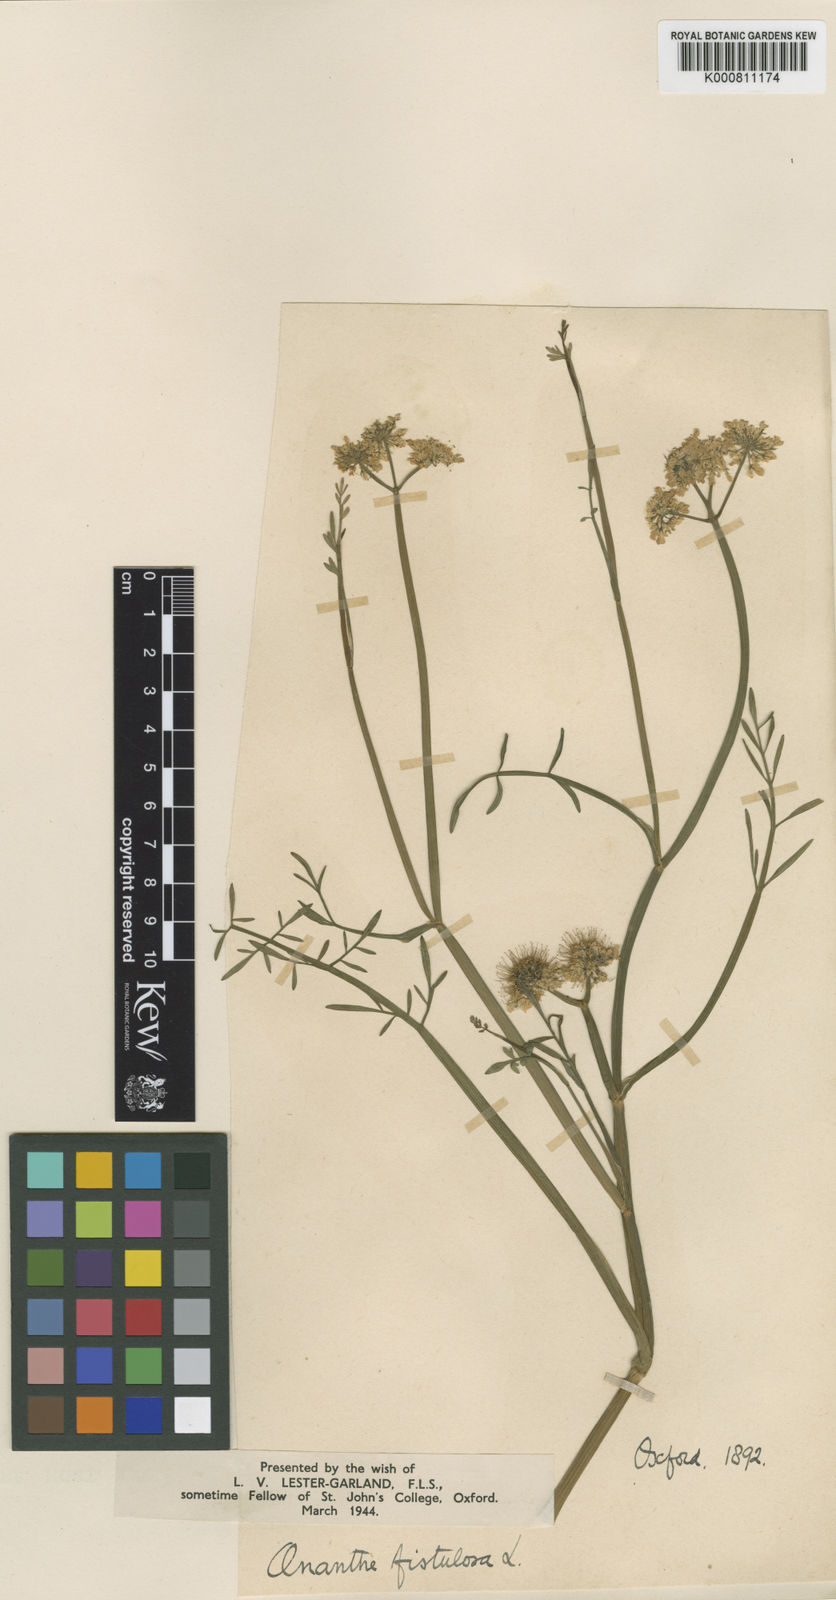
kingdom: Plantae
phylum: Tracheophyta
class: Magnoliopsida
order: Apiales
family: Apiaceae
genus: Oenanthe
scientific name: Oenanthe fistulosa
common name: Tubular water-dropwort
